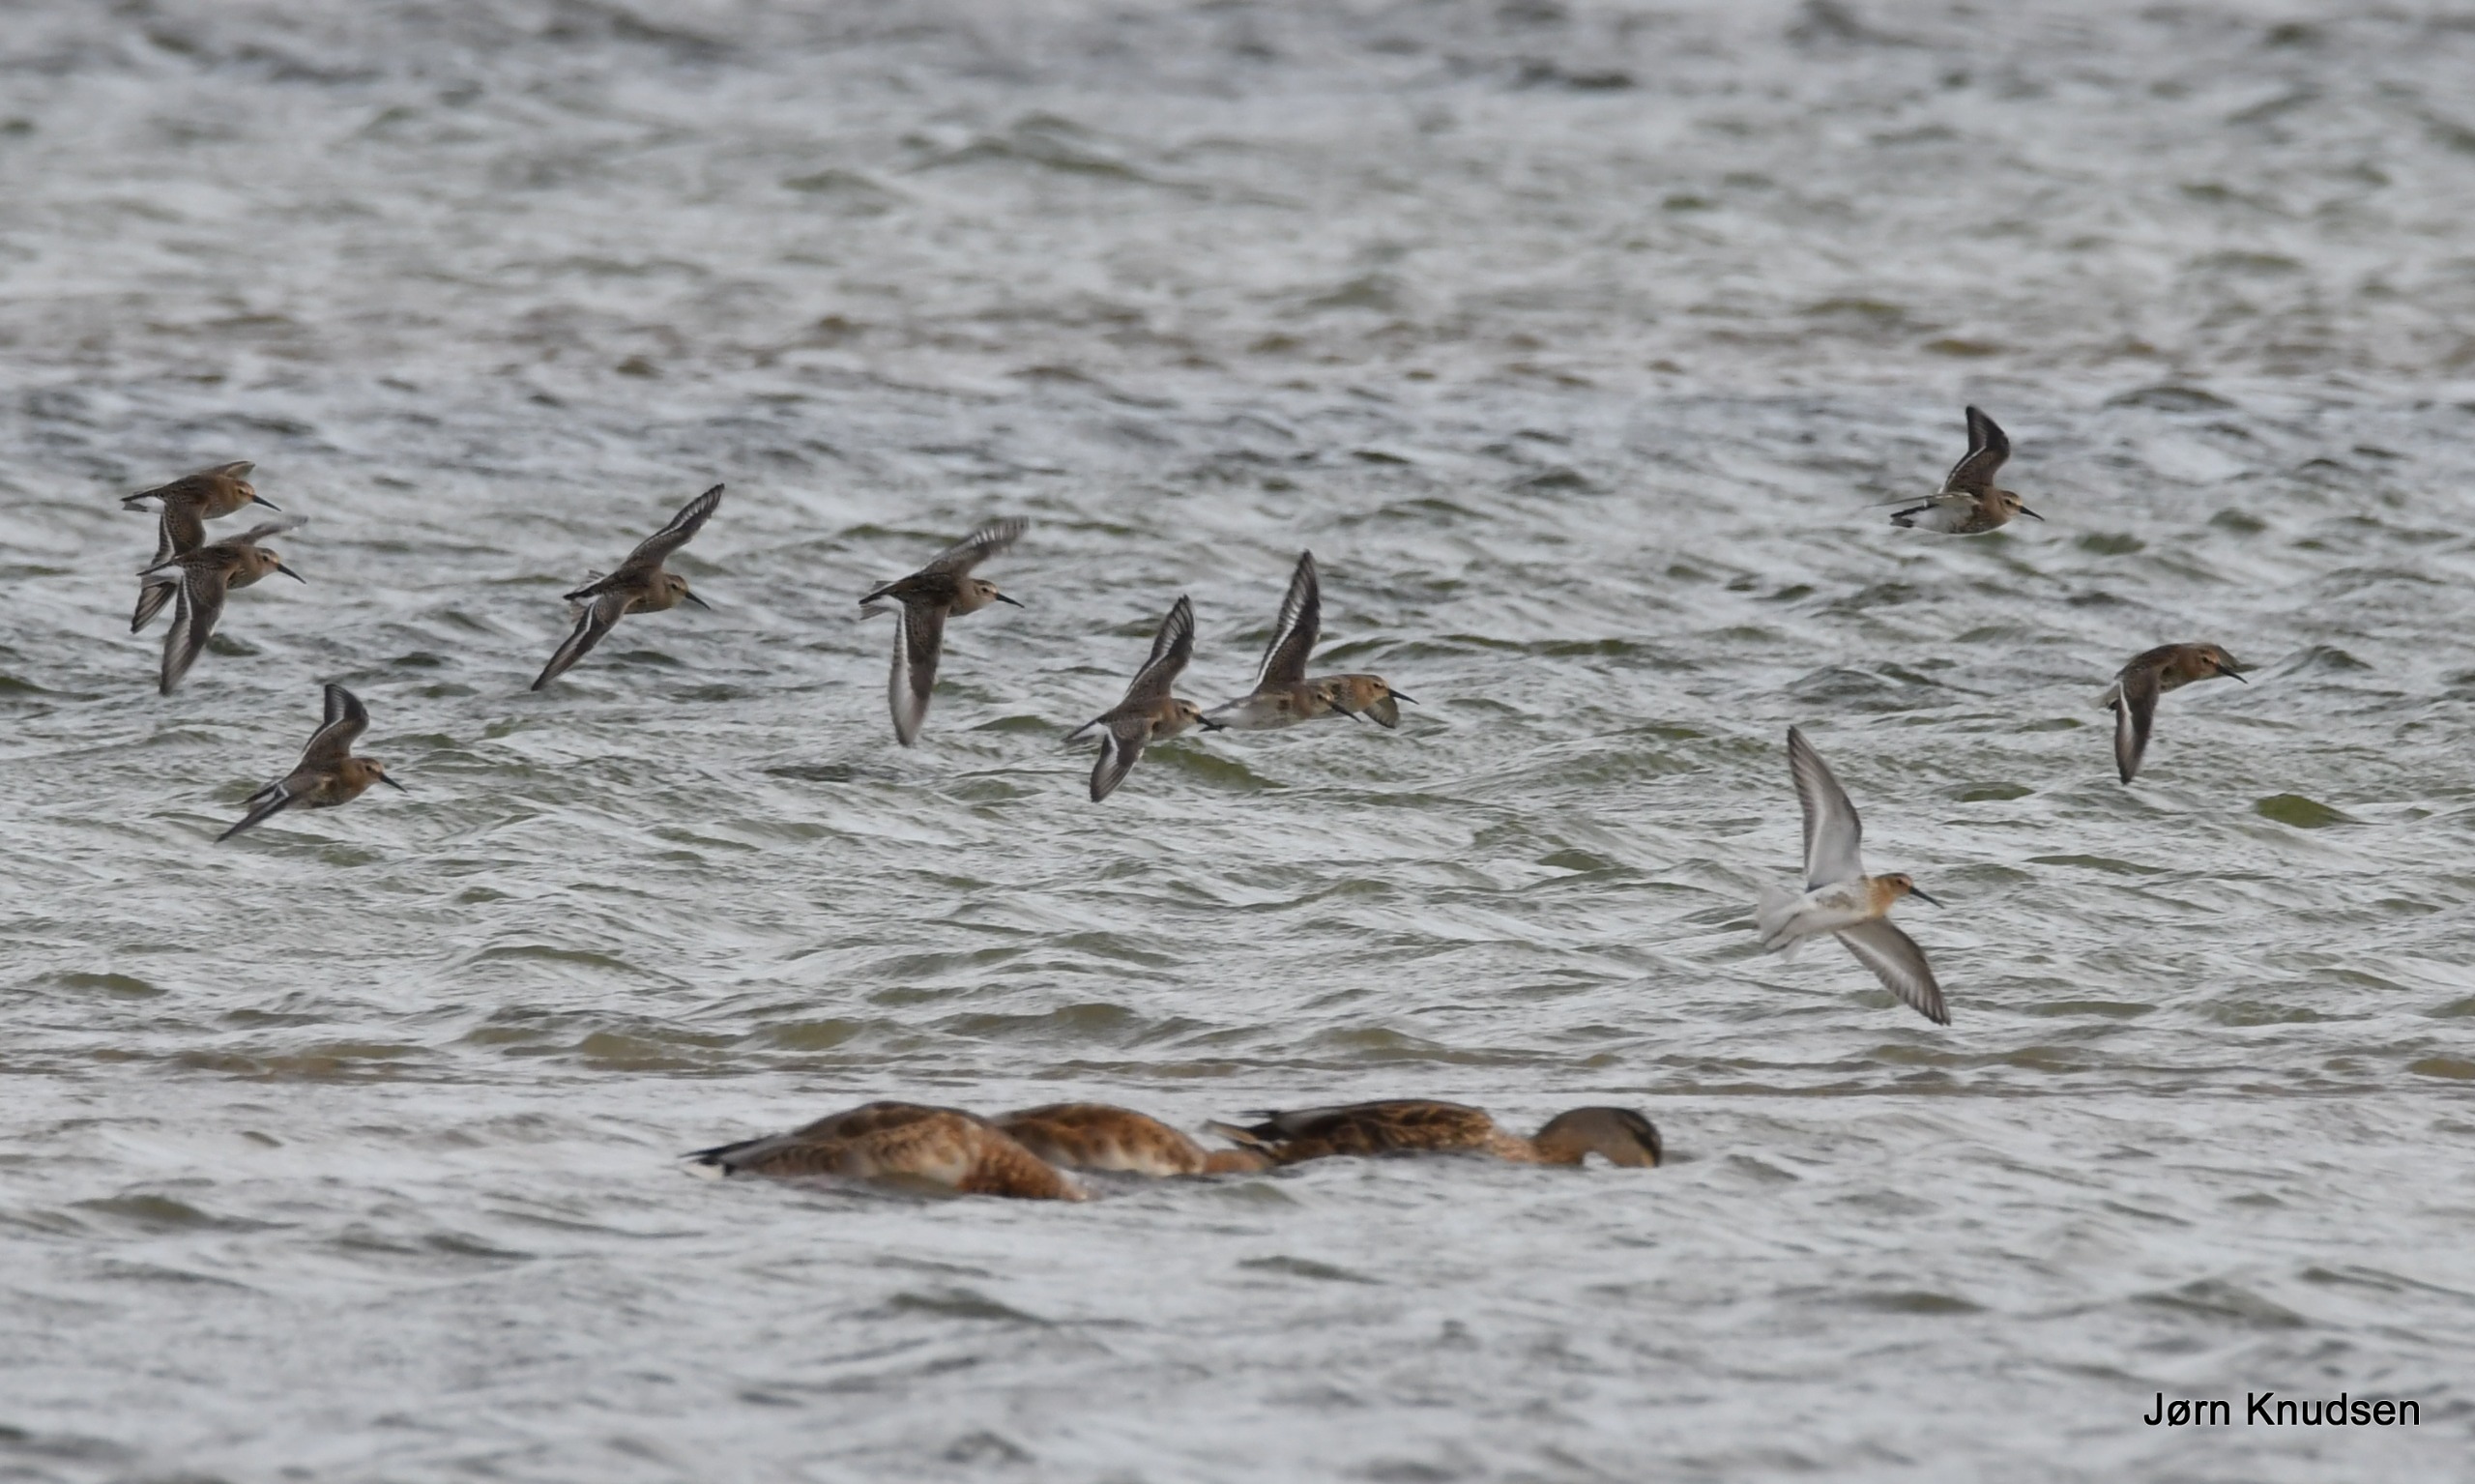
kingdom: Animalia
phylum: Chordata
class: Aves
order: Charadriiformes
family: Scolopacidae
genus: Calidris
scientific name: Calidris alpina
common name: Almindelig ryle
